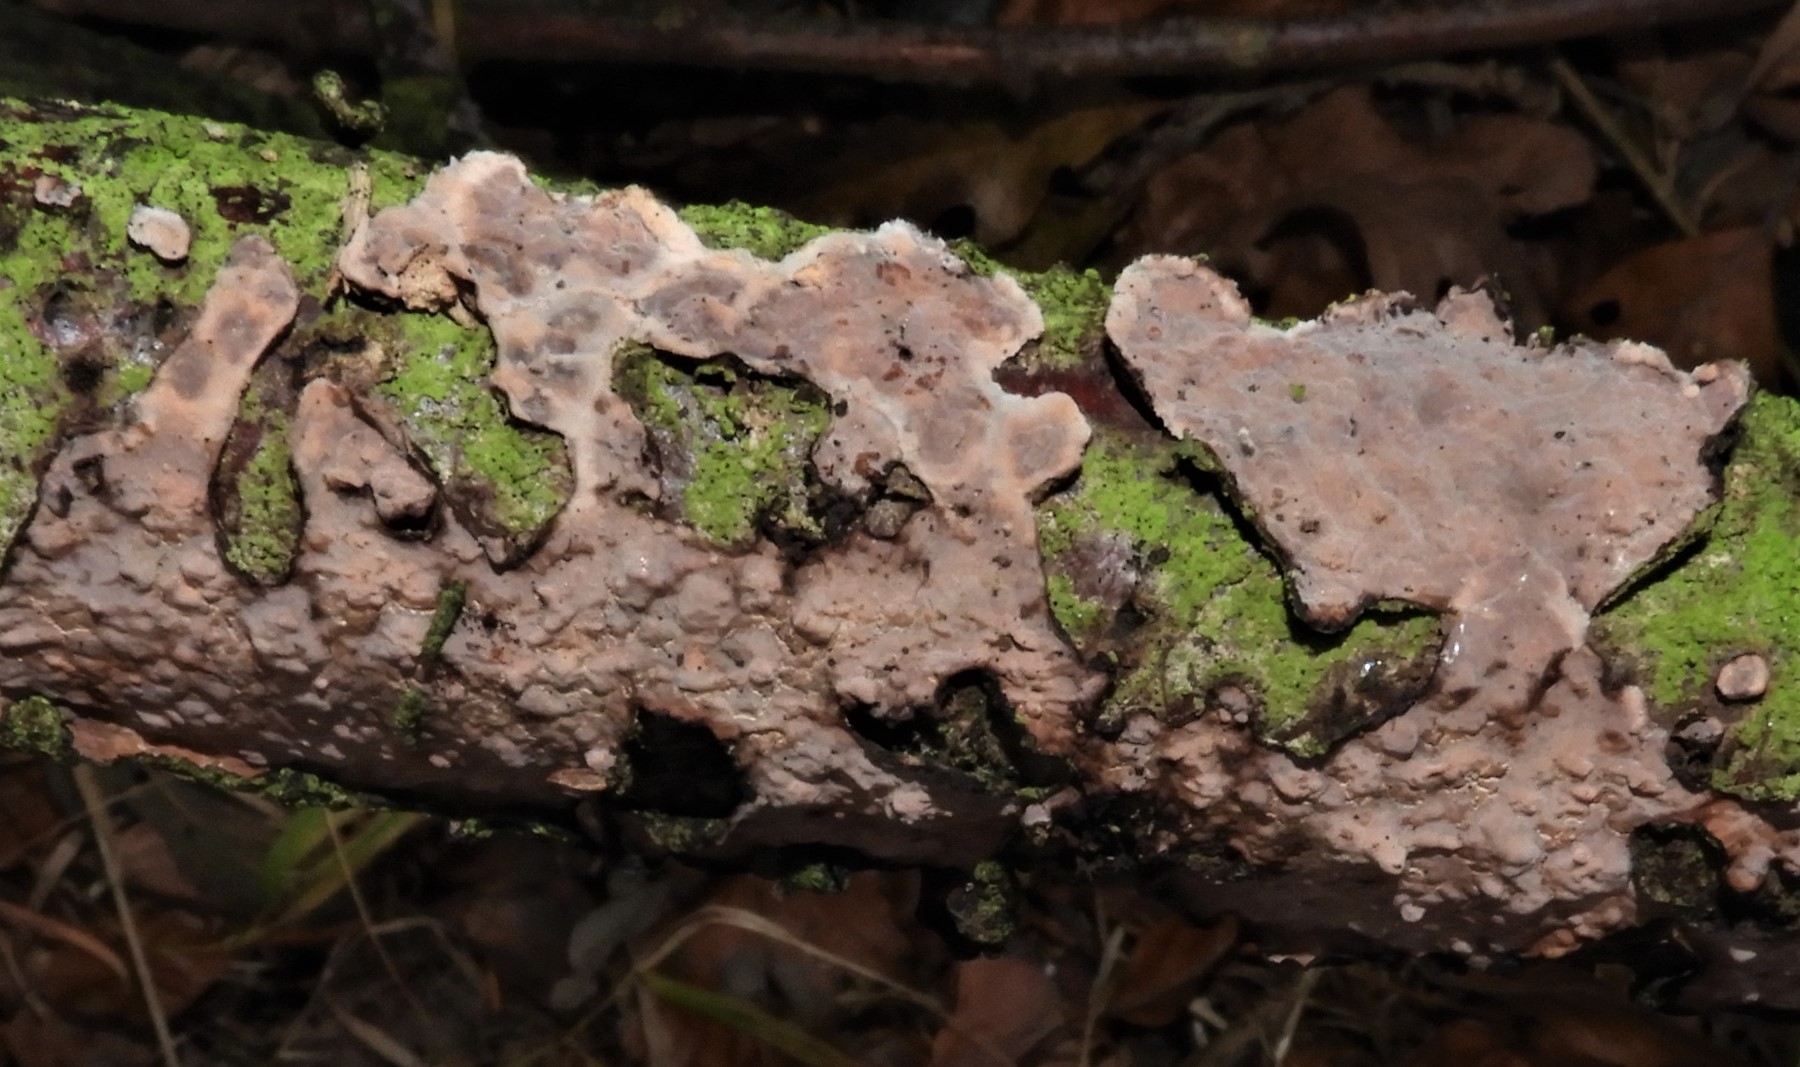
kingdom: Fungi
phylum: Basidiomycota
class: Agaricomycetes
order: Russulales
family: Peniophoraceae
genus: Peniophora
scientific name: Peniophora quercina
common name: ege-voksskind
